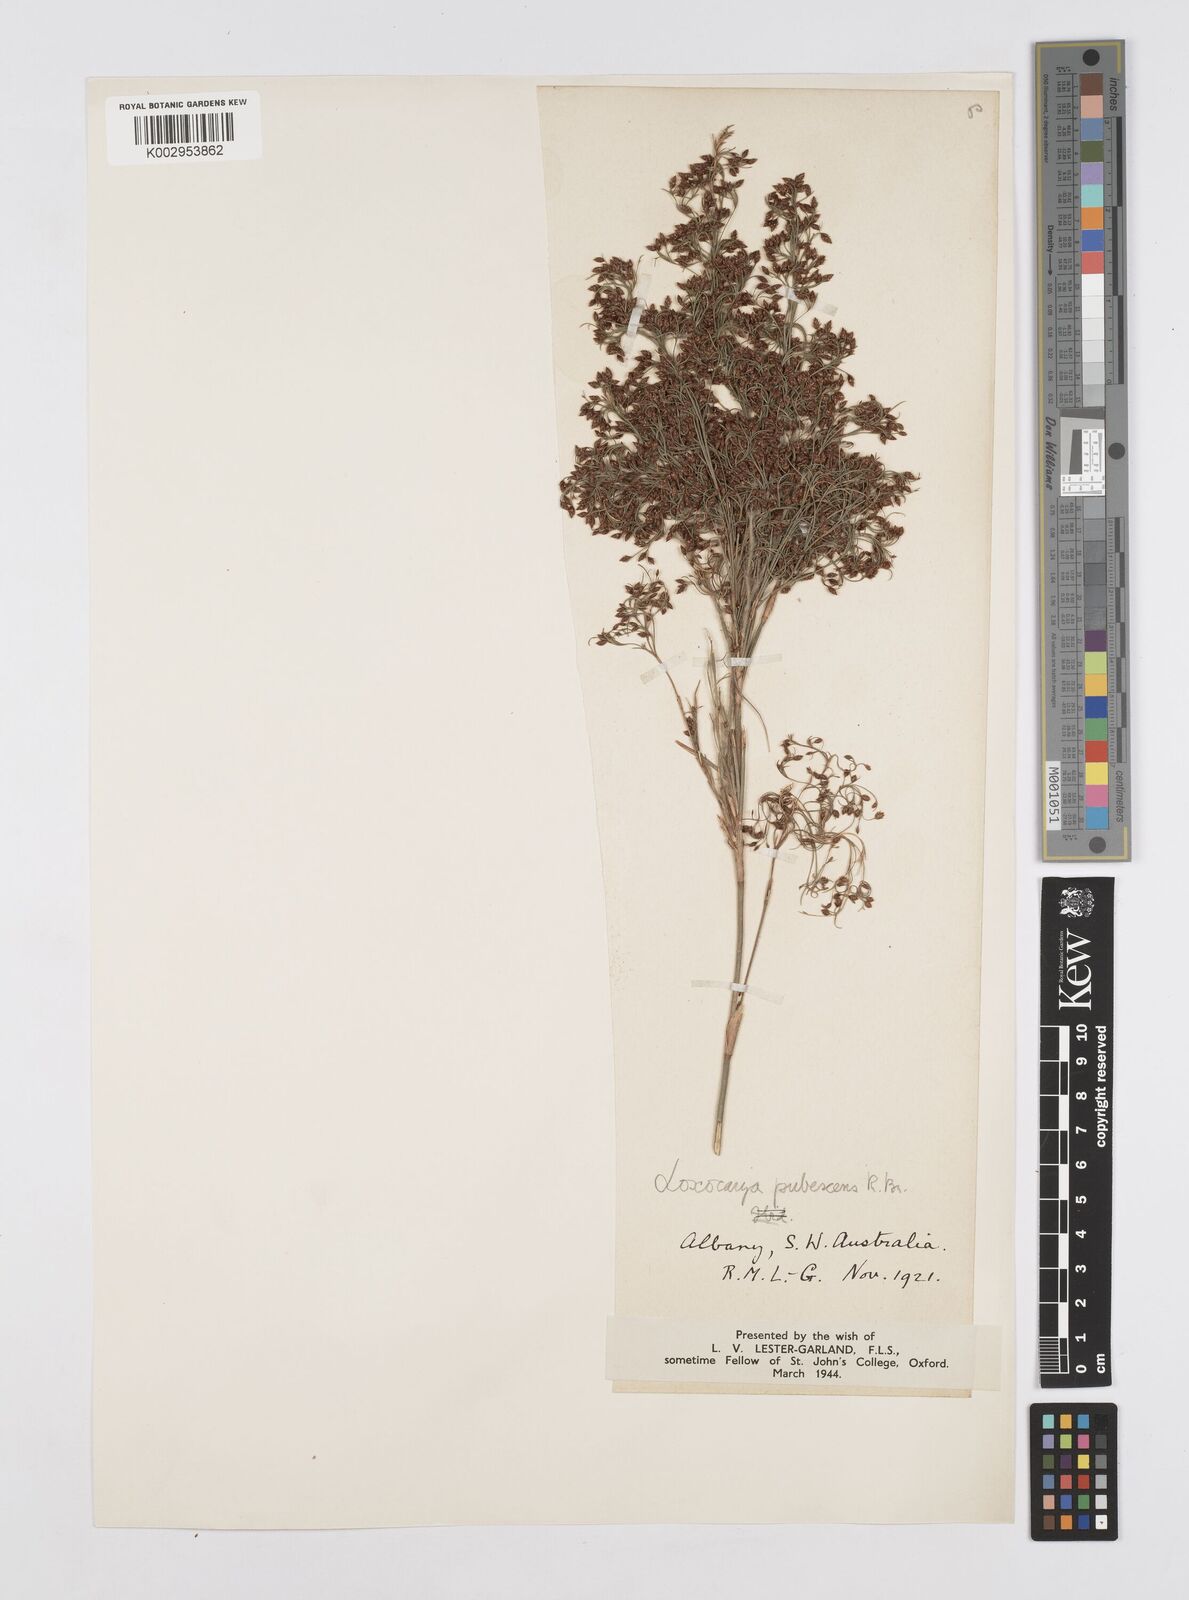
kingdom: Plantae
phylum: Tracheophyta
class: Liliopsida
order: Poales
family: Restionaceae
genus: Hypolaena
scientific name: Hypolaena pubescens
